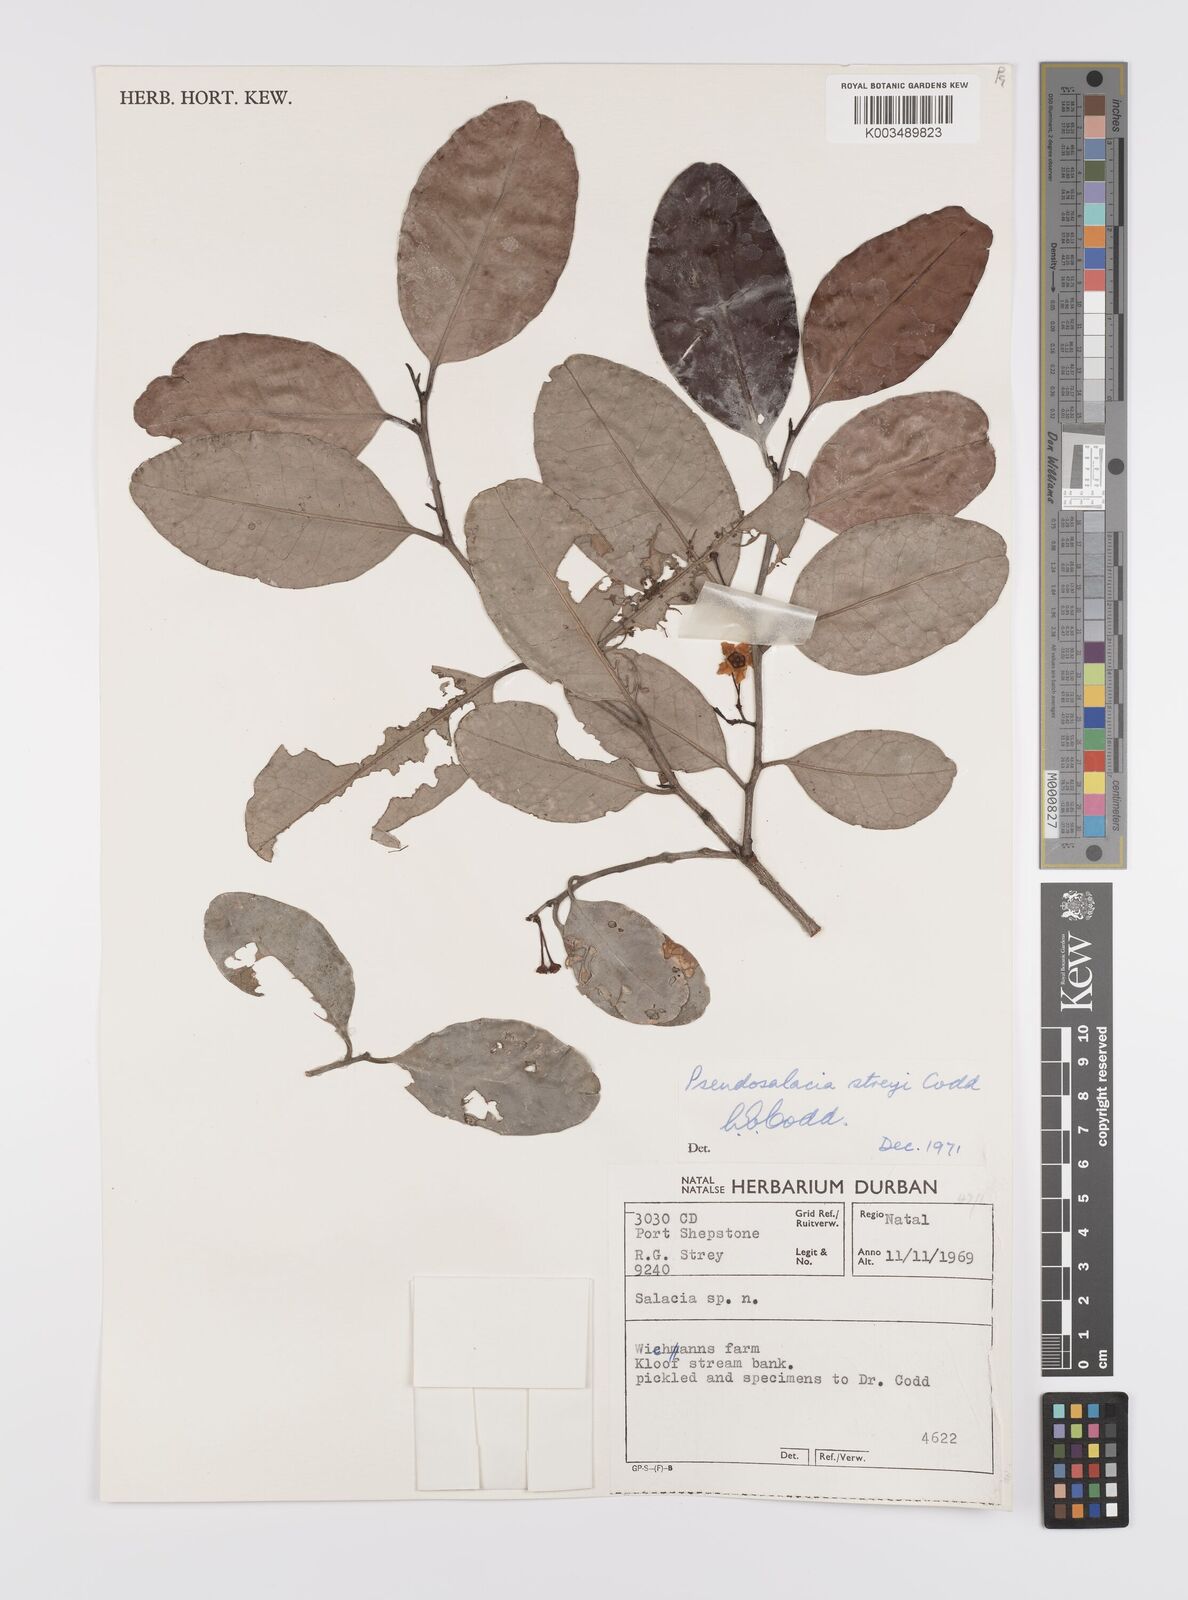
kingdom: Plantae
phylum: Tracheophyta
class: Magnoliopsida
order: Celastrales
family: Celastraceae
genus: Pseudosalacia
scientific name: Pseudosalacia streyi
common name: Bastard lemon
